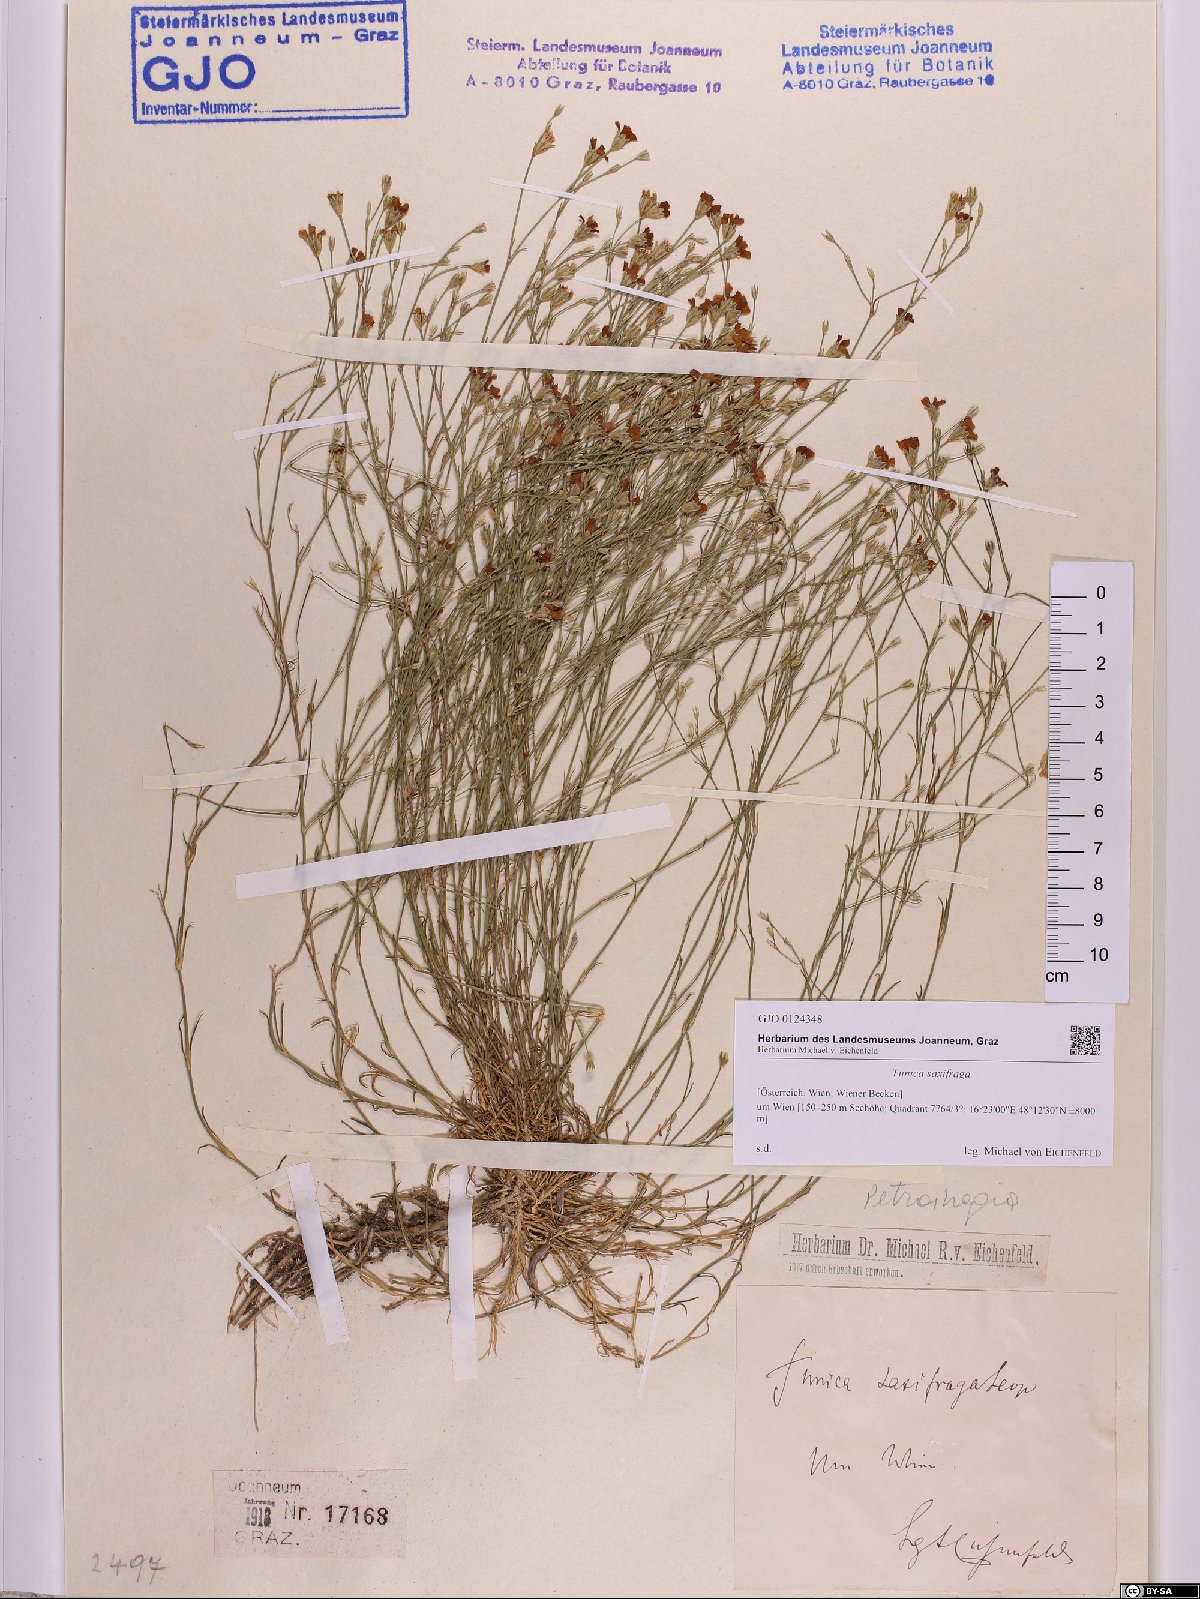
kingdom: Plantae
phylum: Tracheophyta
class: Magnoliopsida
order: Caryophyllales
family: Caryophyllaceae
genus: Petrorhagia
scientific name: Petrorhagia saxifraga
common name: Tunicflower
